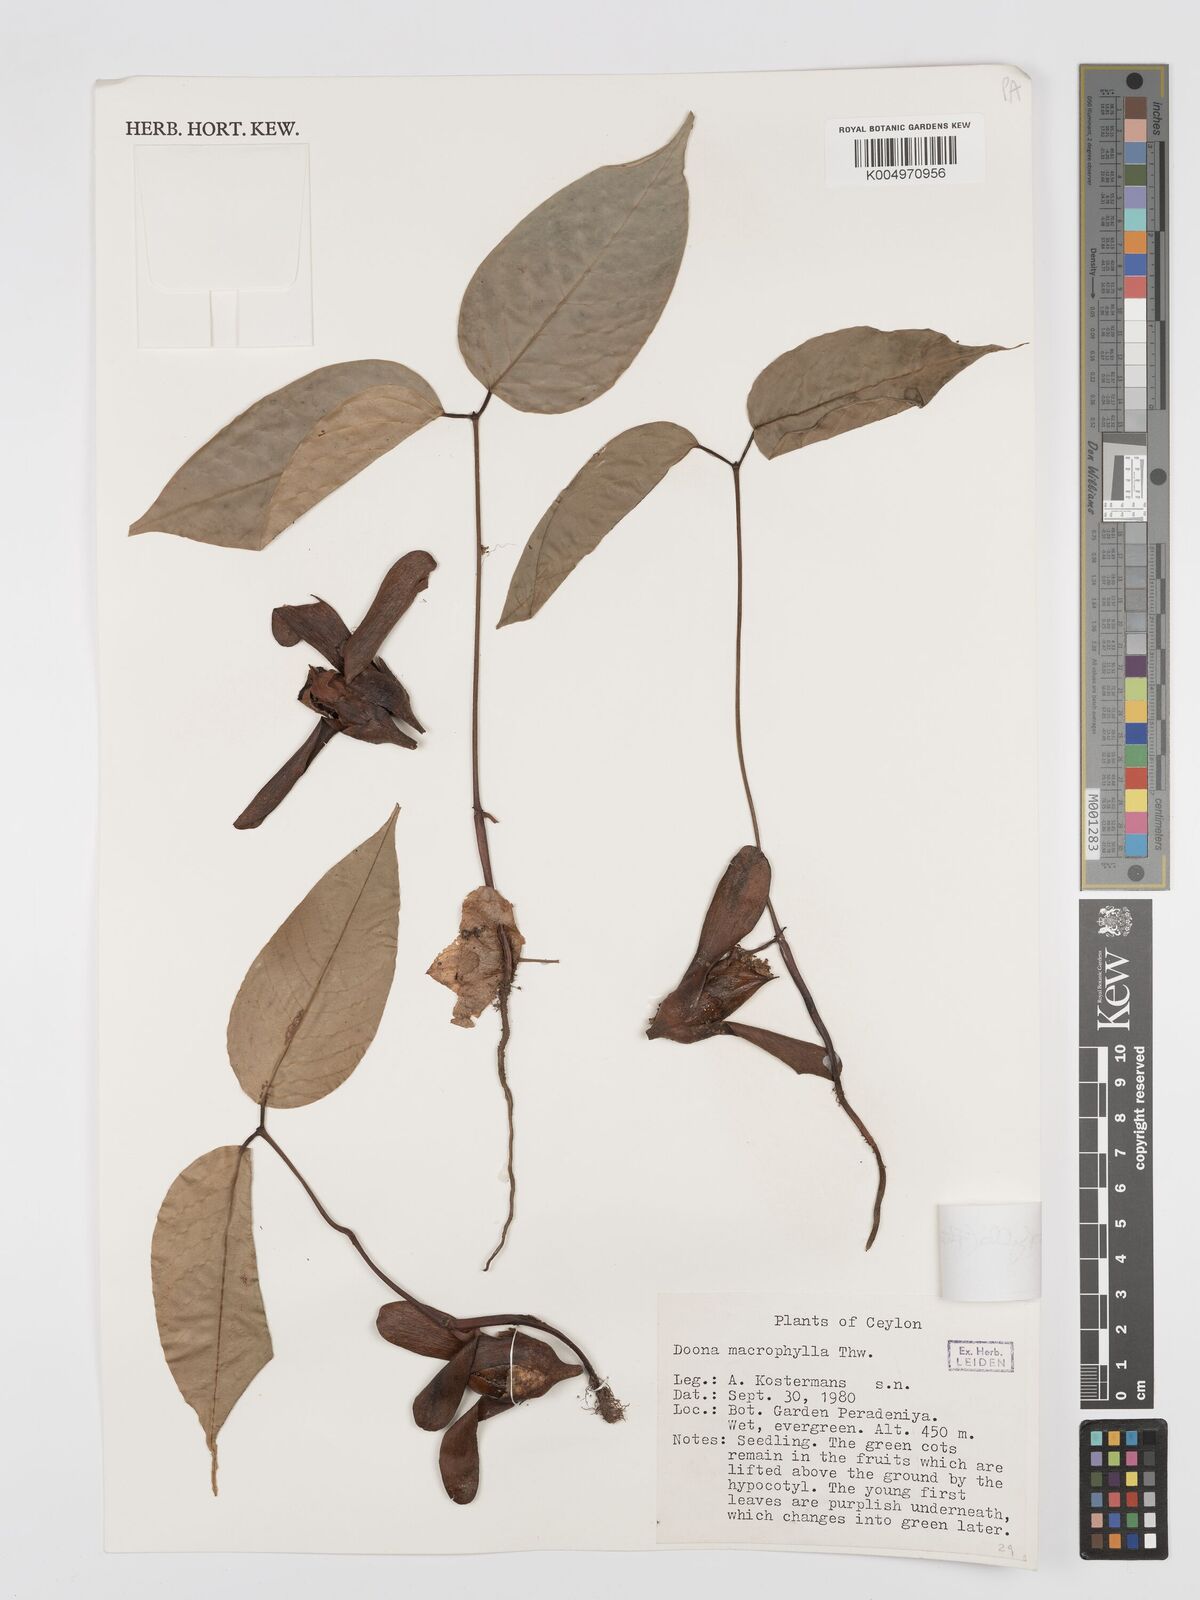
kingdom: Plantae
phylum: Tracheophyta
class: Magnoliopsida
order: Malvales
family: Dipterocarpaceae
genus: Doona
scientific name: Doona macrophylla
